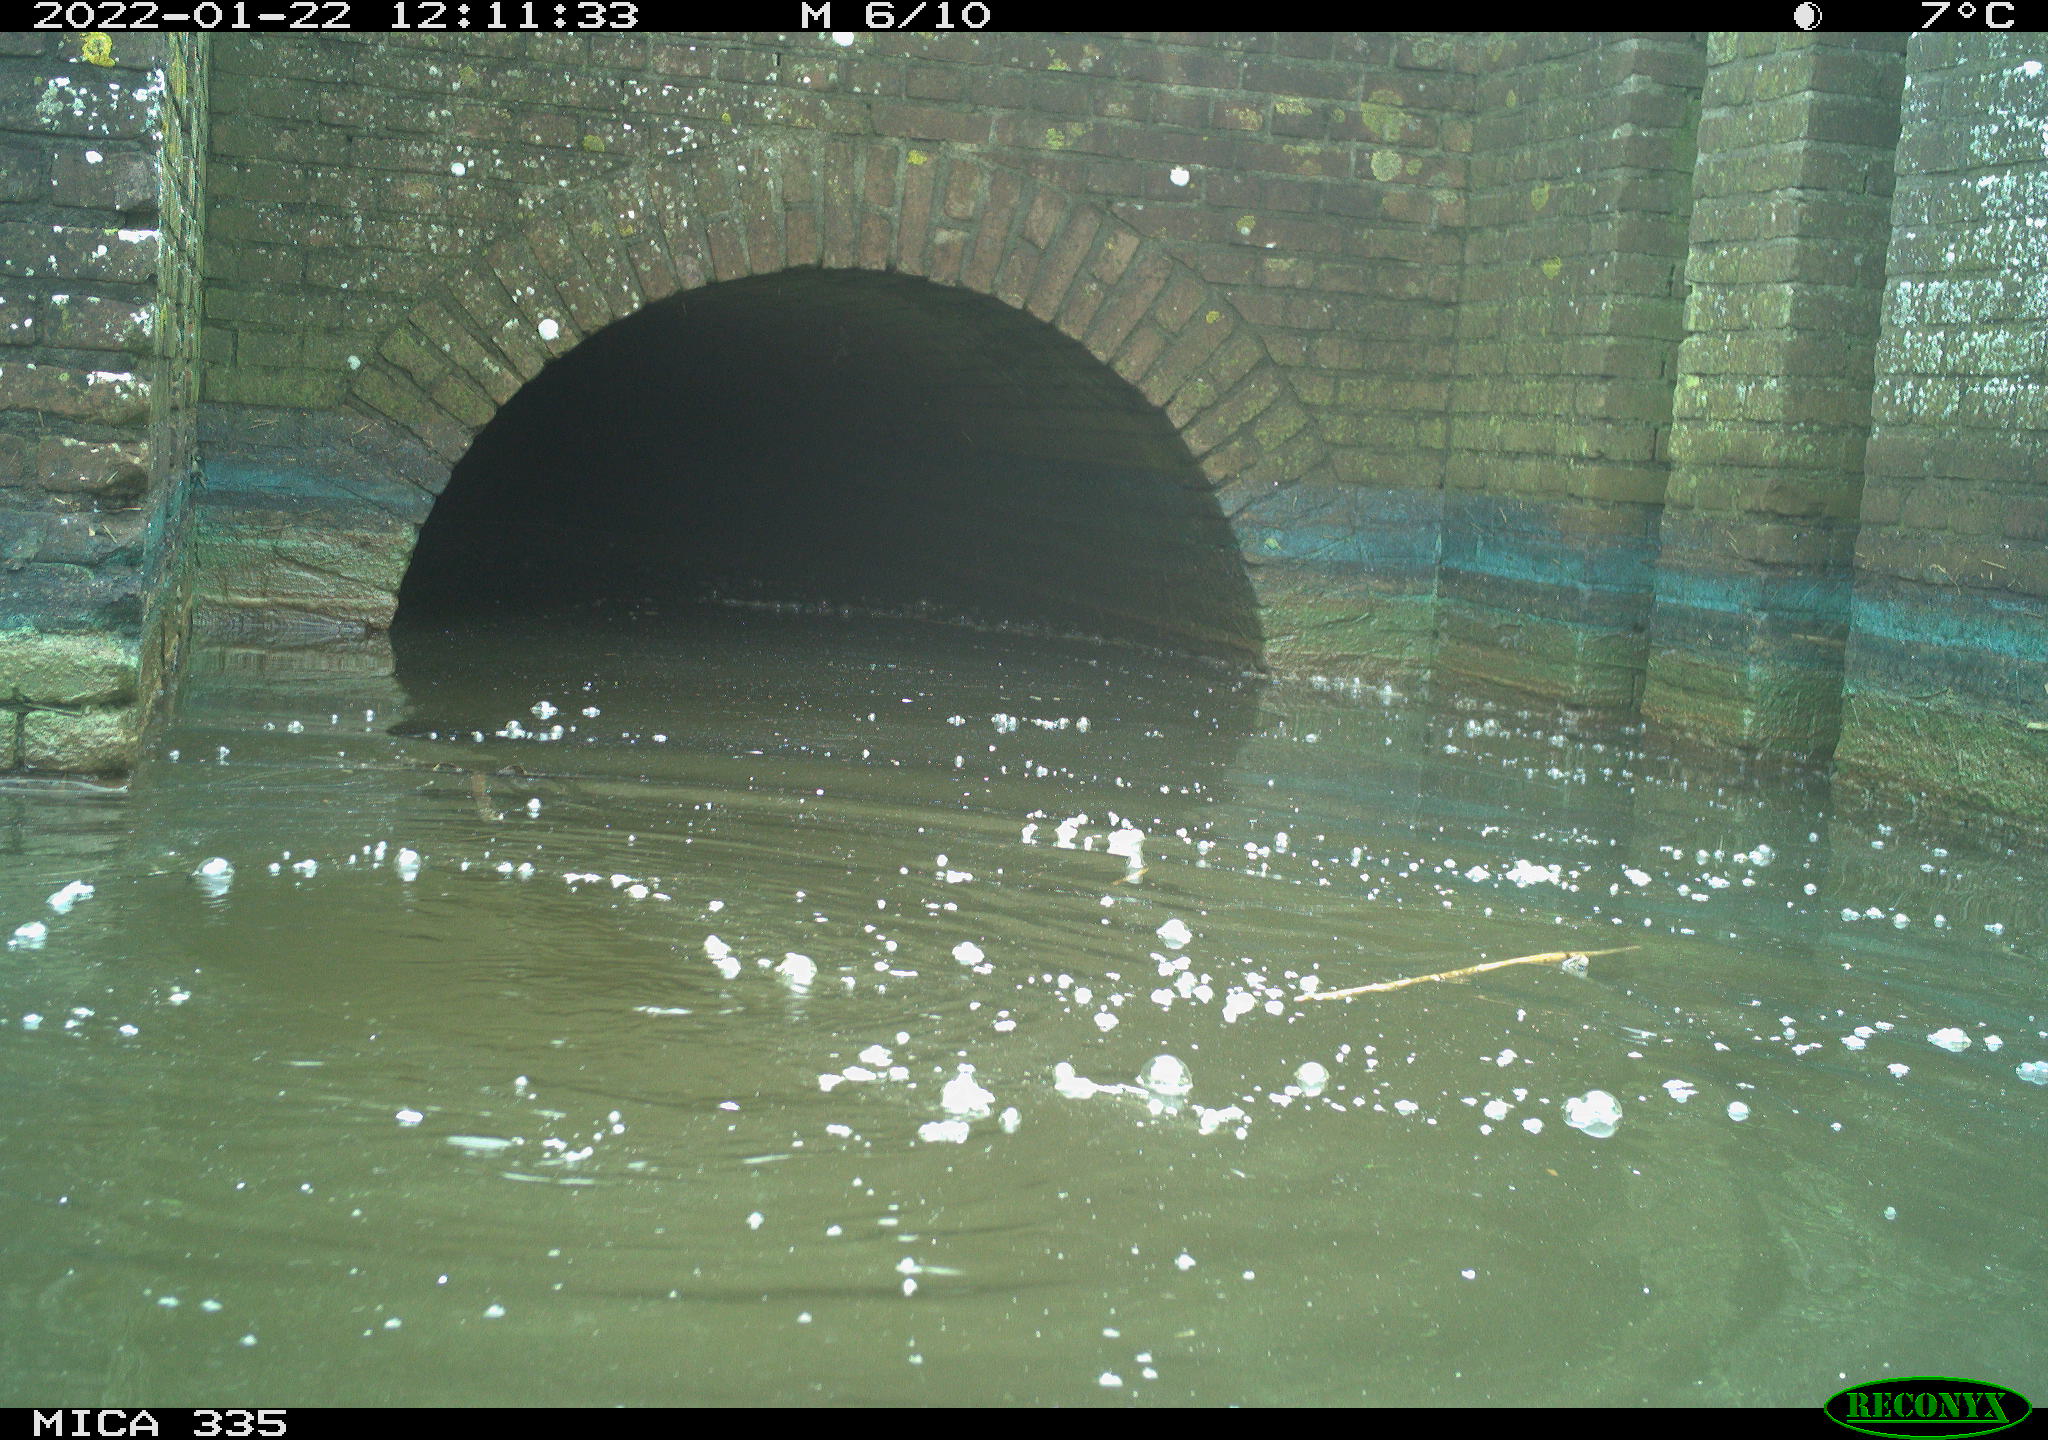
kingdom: Animalia
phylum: Chordata
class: Aves
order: Suliformes
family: Phalacrocoracidae
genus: Phalacrocorax
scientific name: Phalacrocorax carbo
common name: Great cormorant
